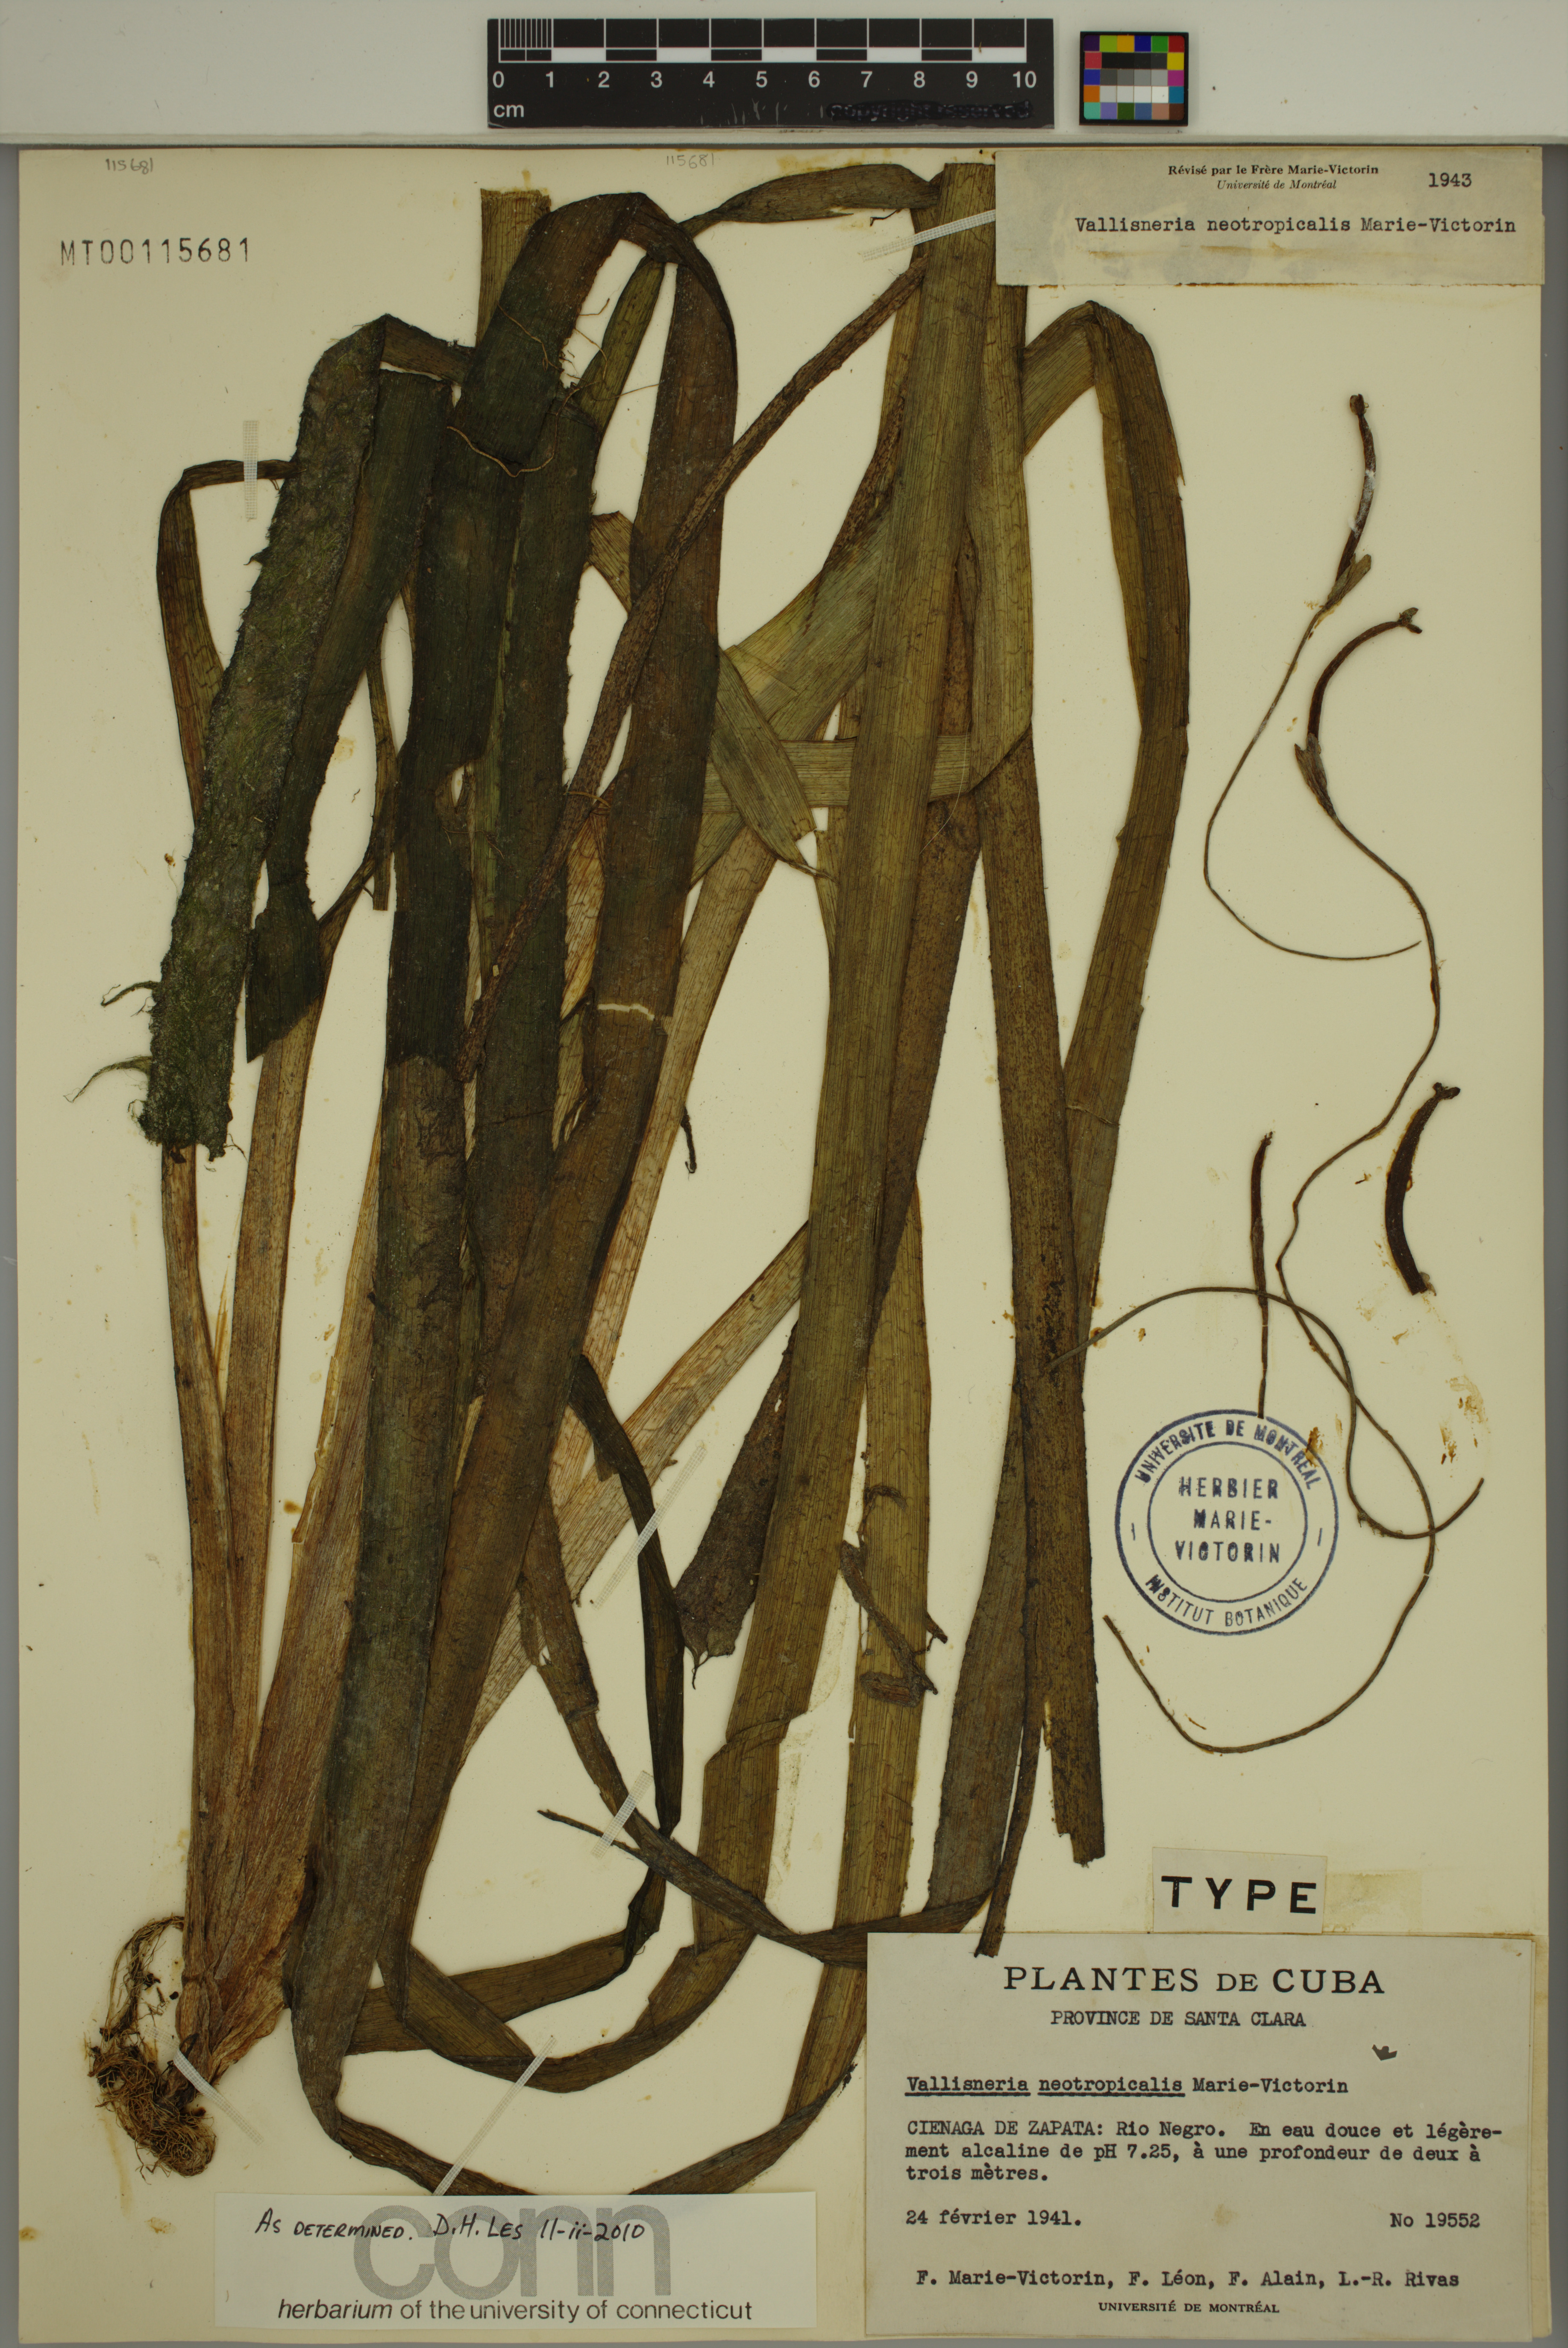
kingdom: Plantae
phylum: Tracheophyta
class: Liliopsida
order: Alismatales
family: Hydrocharitaceae
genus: Vallisneria
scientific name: Vallisneria americana
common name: American eelgrass
